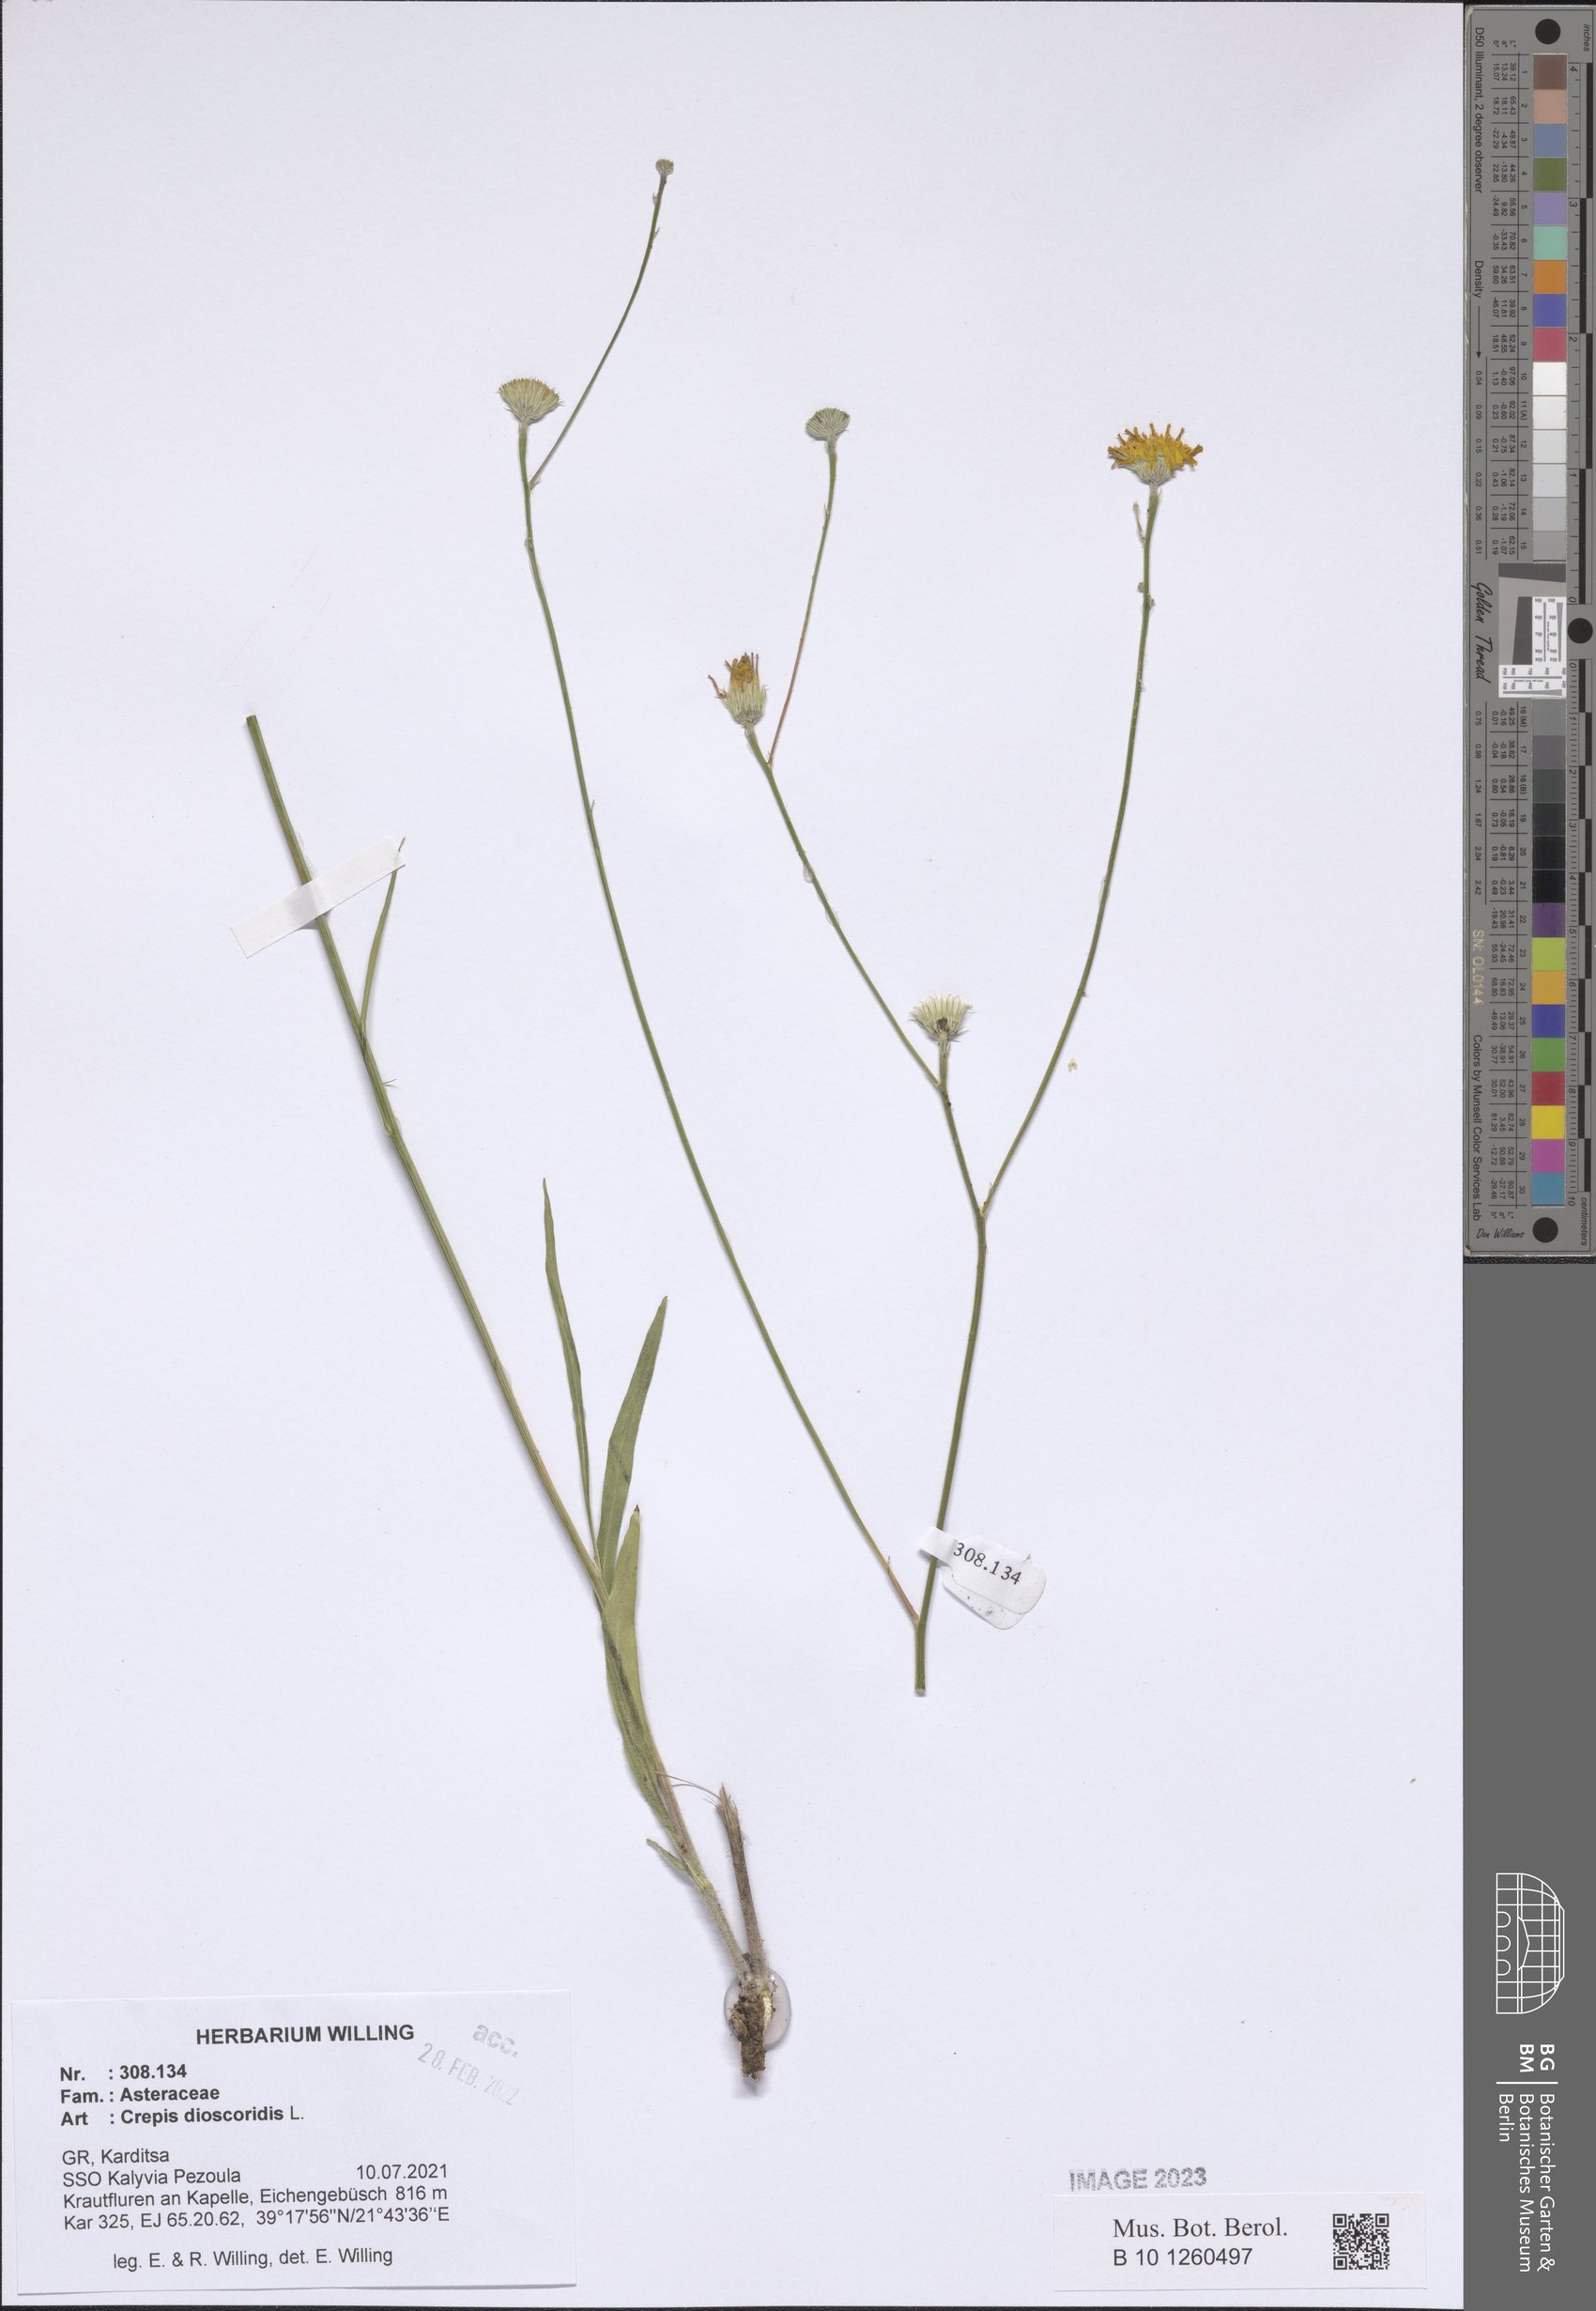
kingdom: Plantae
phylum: Tracheophyta
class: Magnoliopsida
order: Asterales
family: Asteraceae
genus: Crepis
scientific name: Crepis dioscoridis
